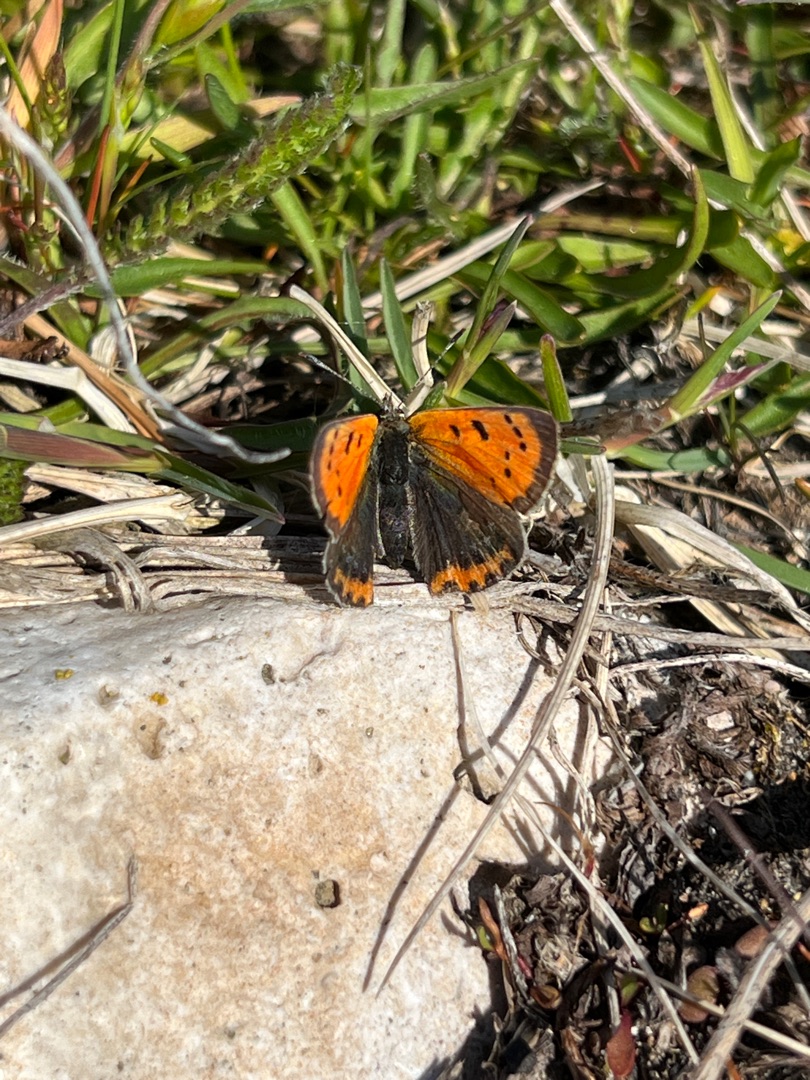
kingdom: Animalia
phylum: Arthropoda
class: Insecta
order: Lepidoptera
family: Lycaenidae
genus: Lycaena
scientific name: Lycaena phlaeas
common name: Lille ildfugl
